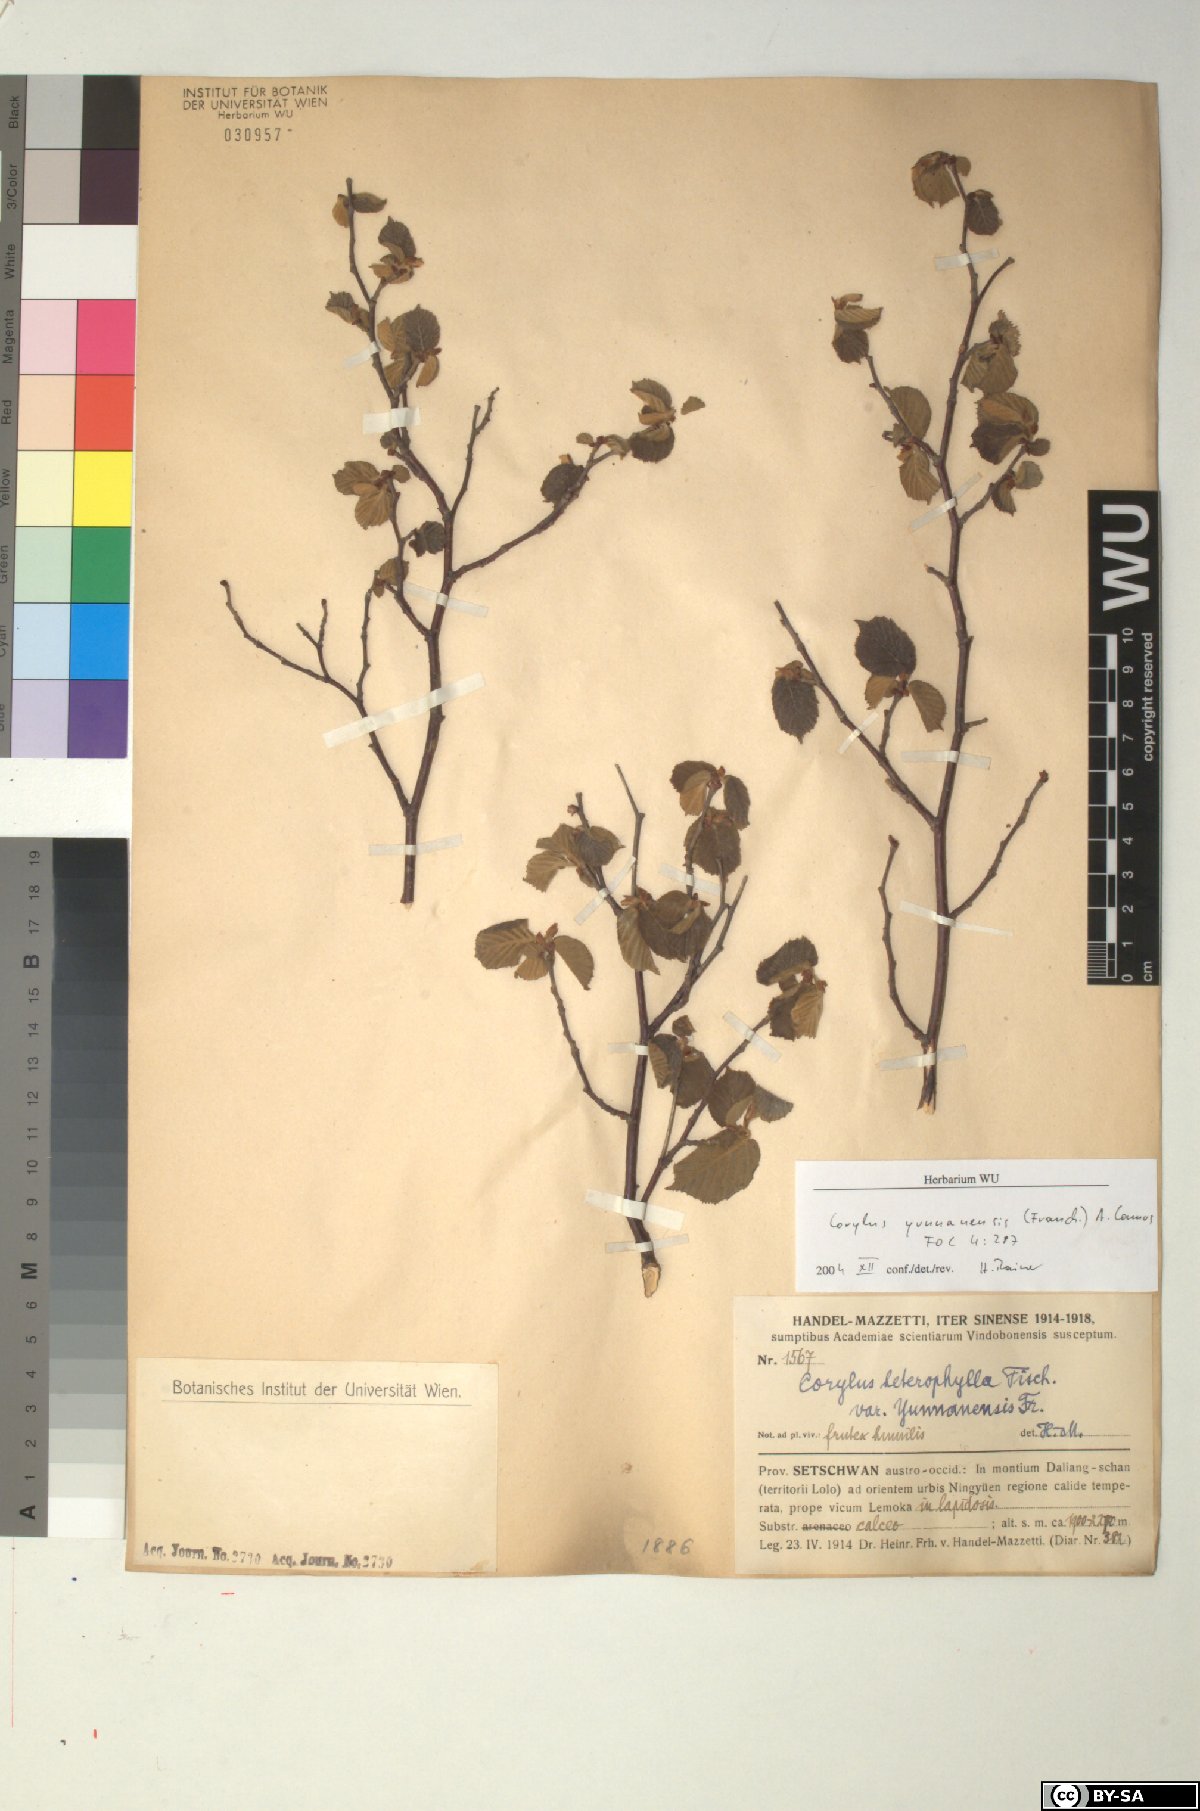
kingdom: Plantae
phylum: Tracheophyta
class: Magnoliopsida
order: Fagales
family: Betulaceae
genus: Corylus
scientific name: Corylus yunnanensis
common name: Yunnan hazel
